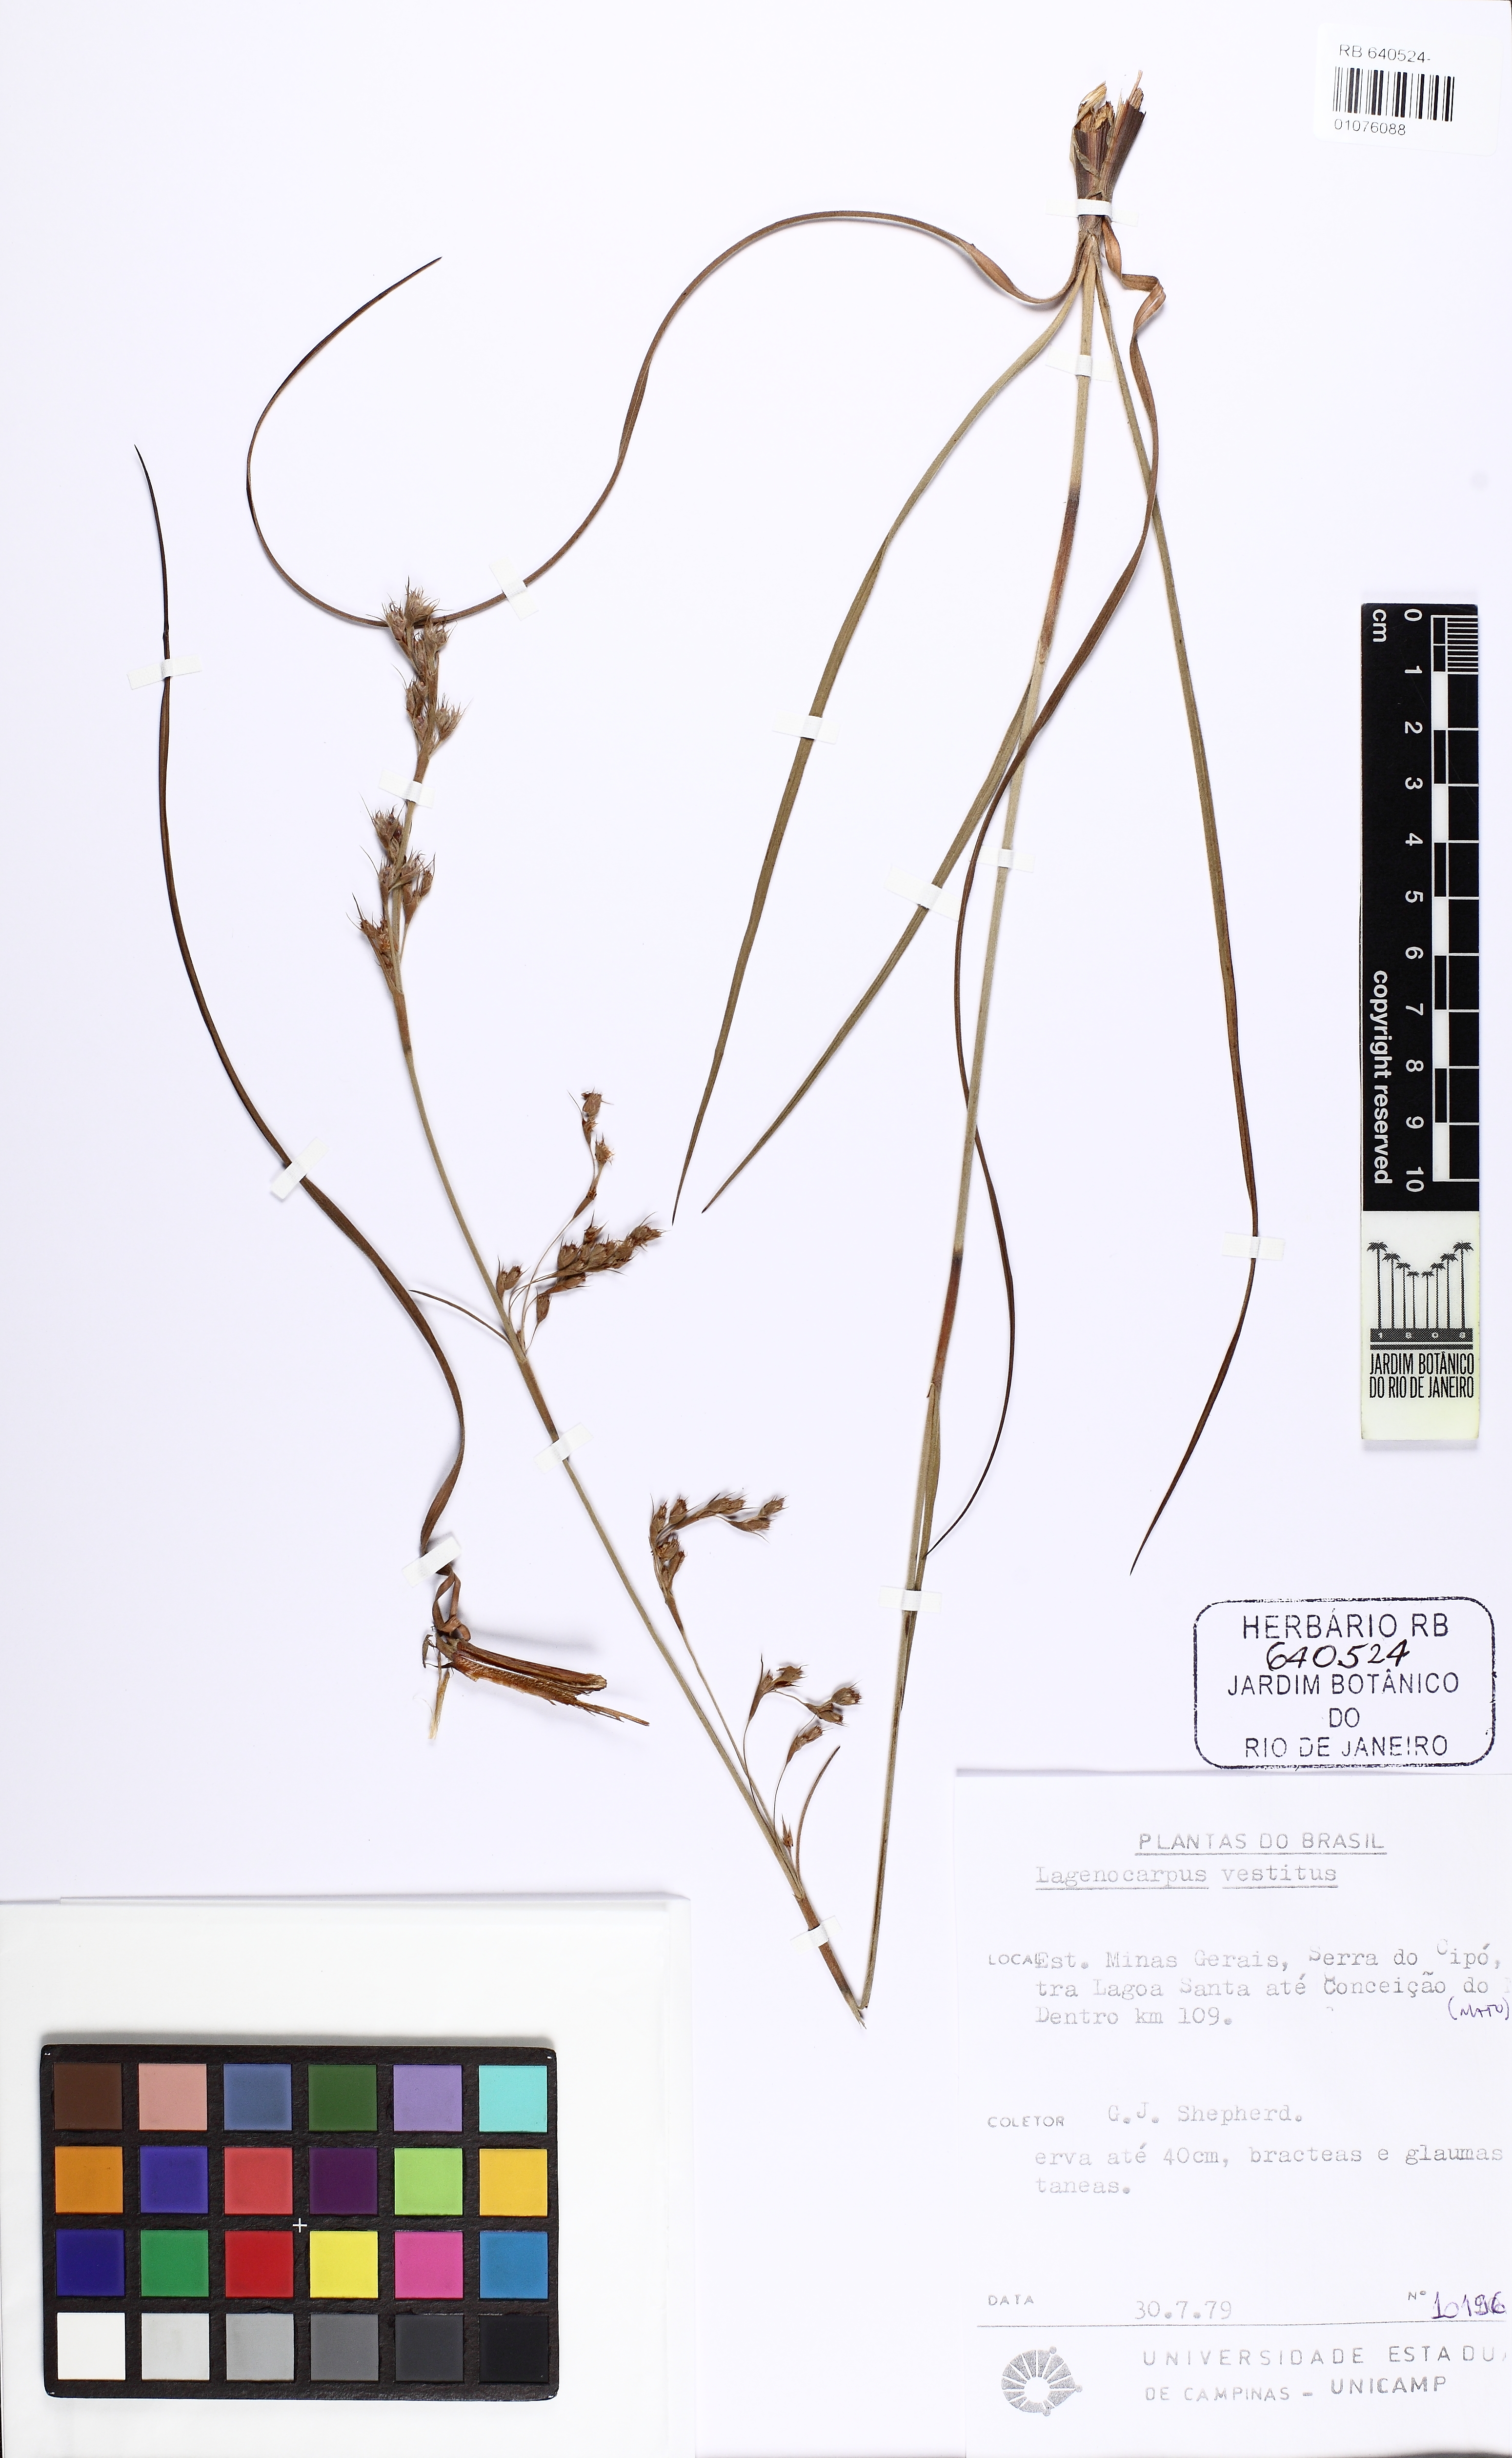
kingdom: Plantae
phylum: Tracheophyta
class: Liliopsida
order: Poales
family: Cyperaceae
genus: Lagenocarpus
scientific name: Lagenocarpus griseus
